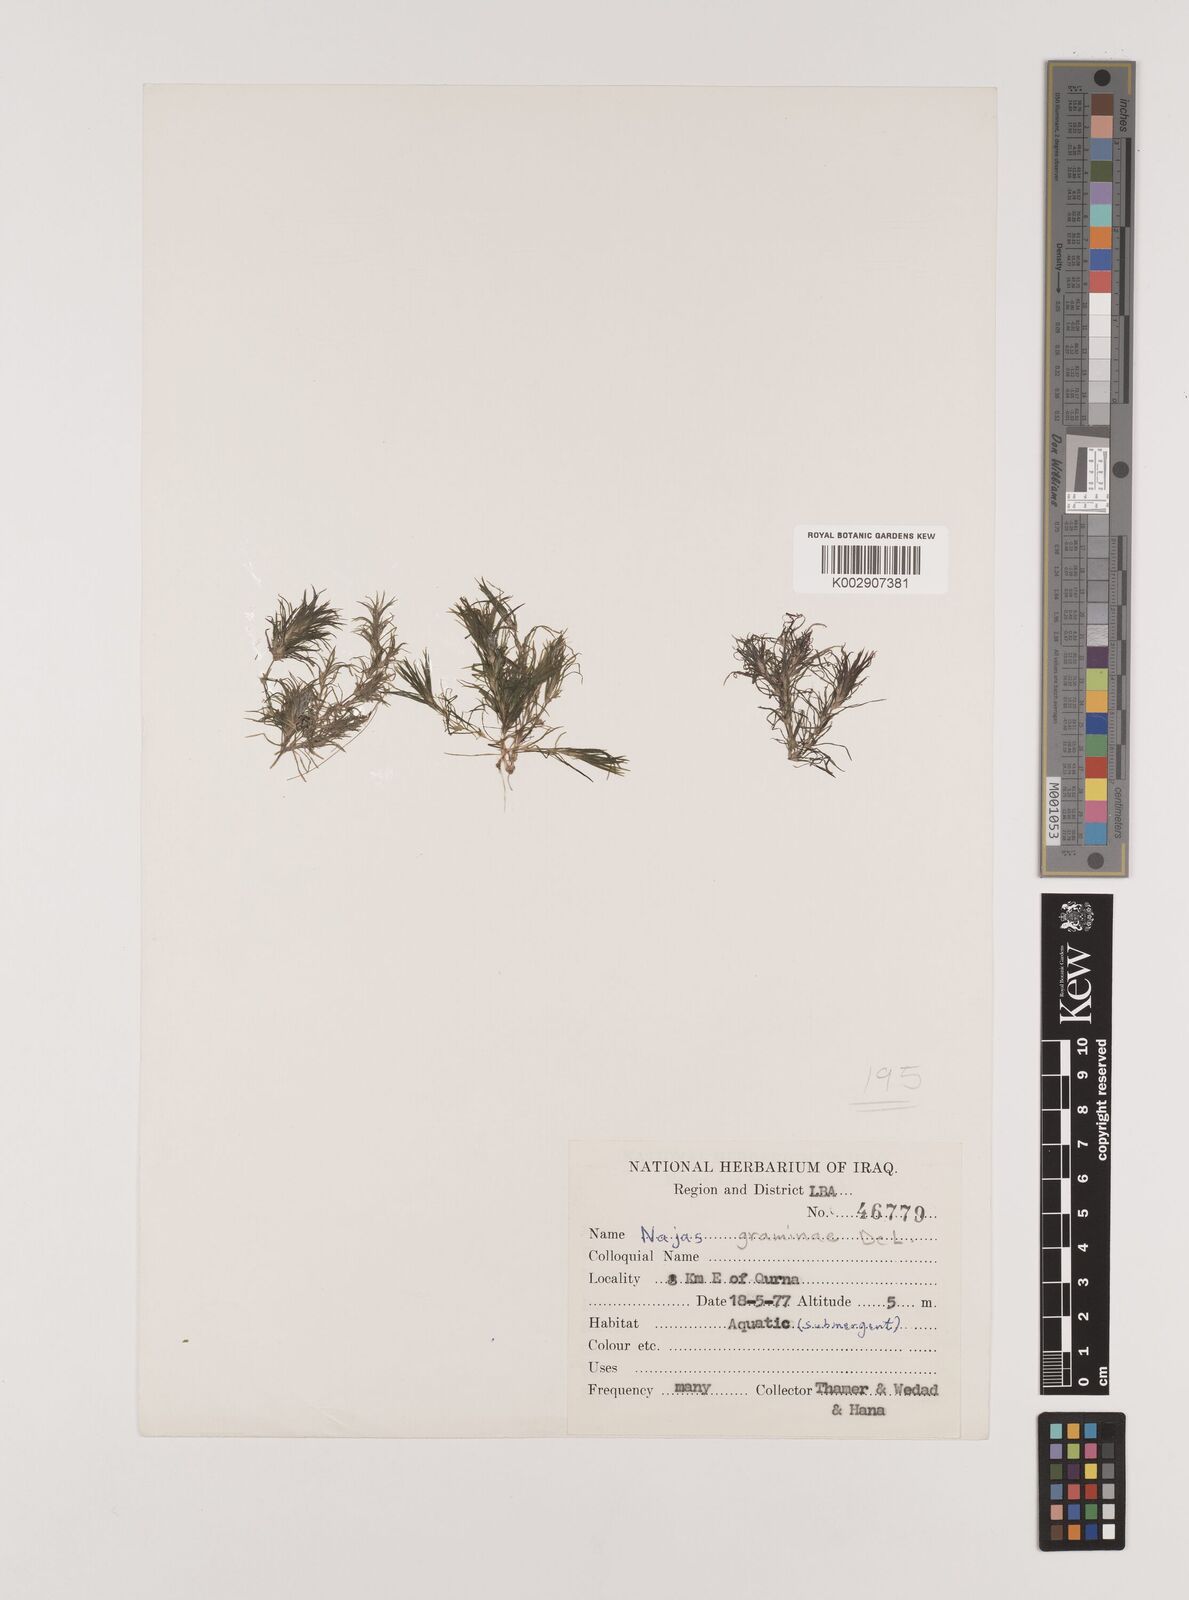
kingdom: Plantae
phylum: Tracheophyta
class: Liliopsida
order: Alismatales
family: Hydrocharitaceae
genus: Najas
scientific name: Najas graminea
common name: Ricefield waternymph
